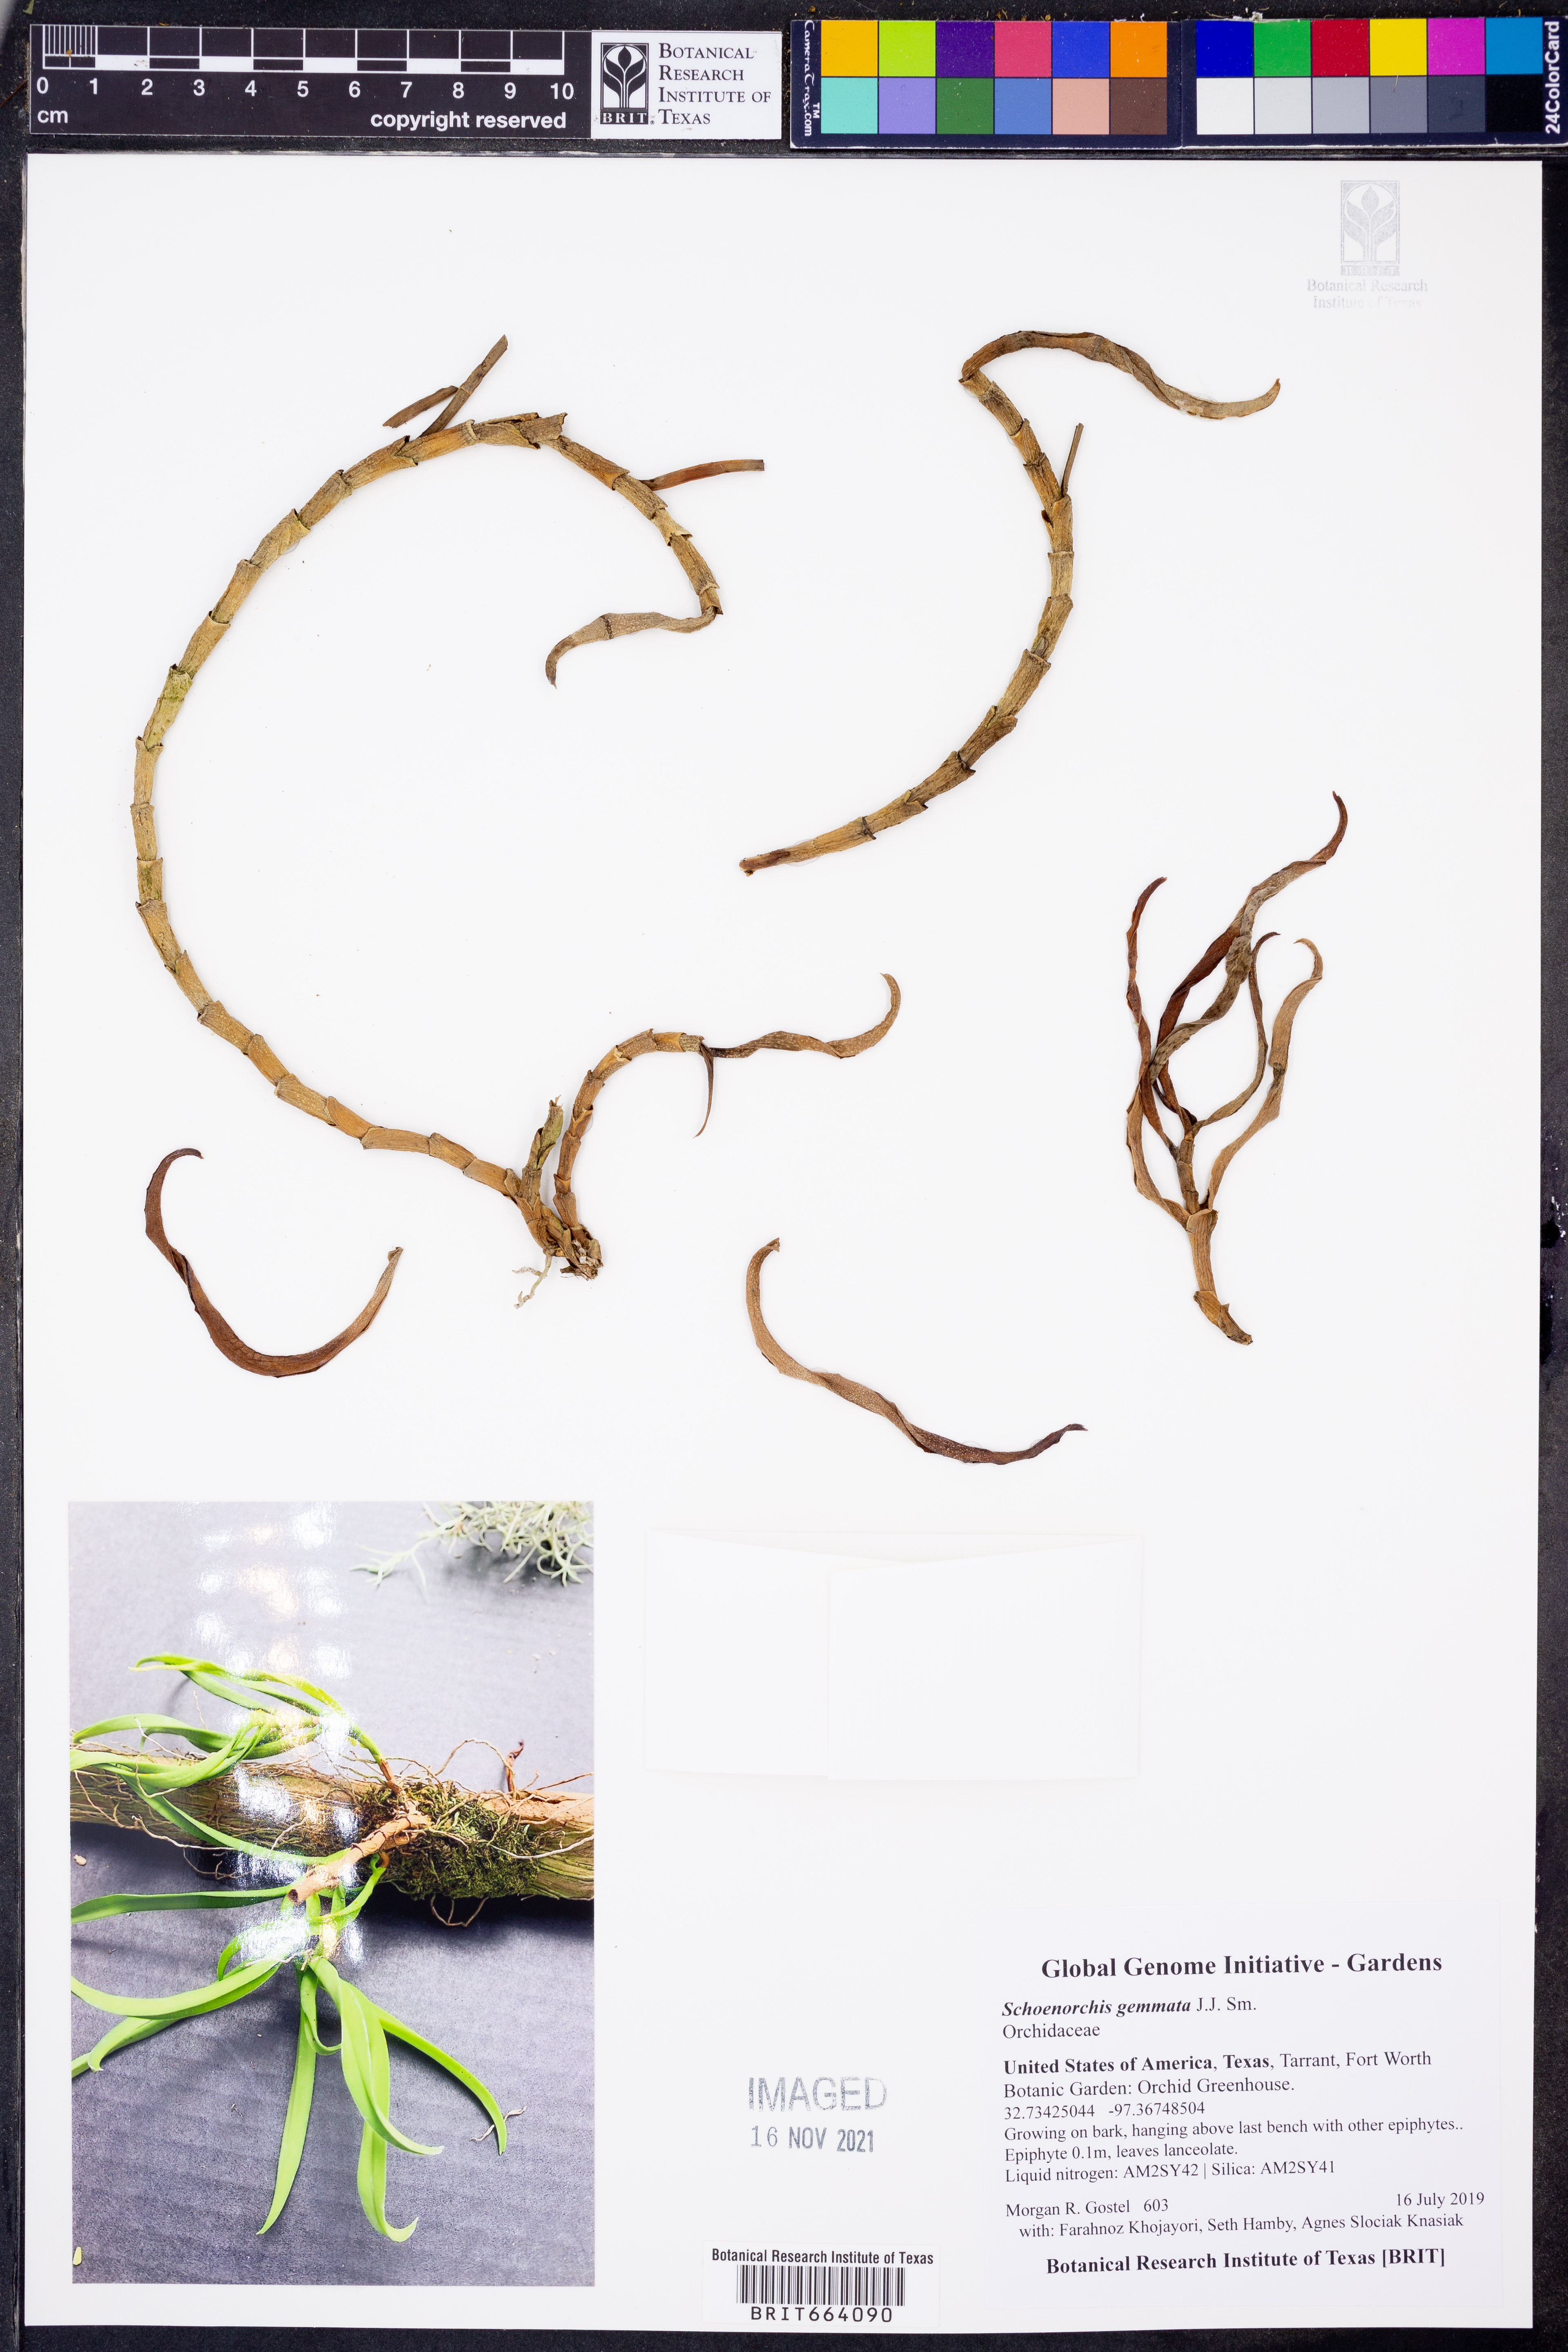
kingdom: Plantae
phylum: Tracheophyta
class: Liliopsida
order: Asparagales
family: Orchidaceae
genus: Schoenorchis
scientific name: Schoenorchis gemmata
